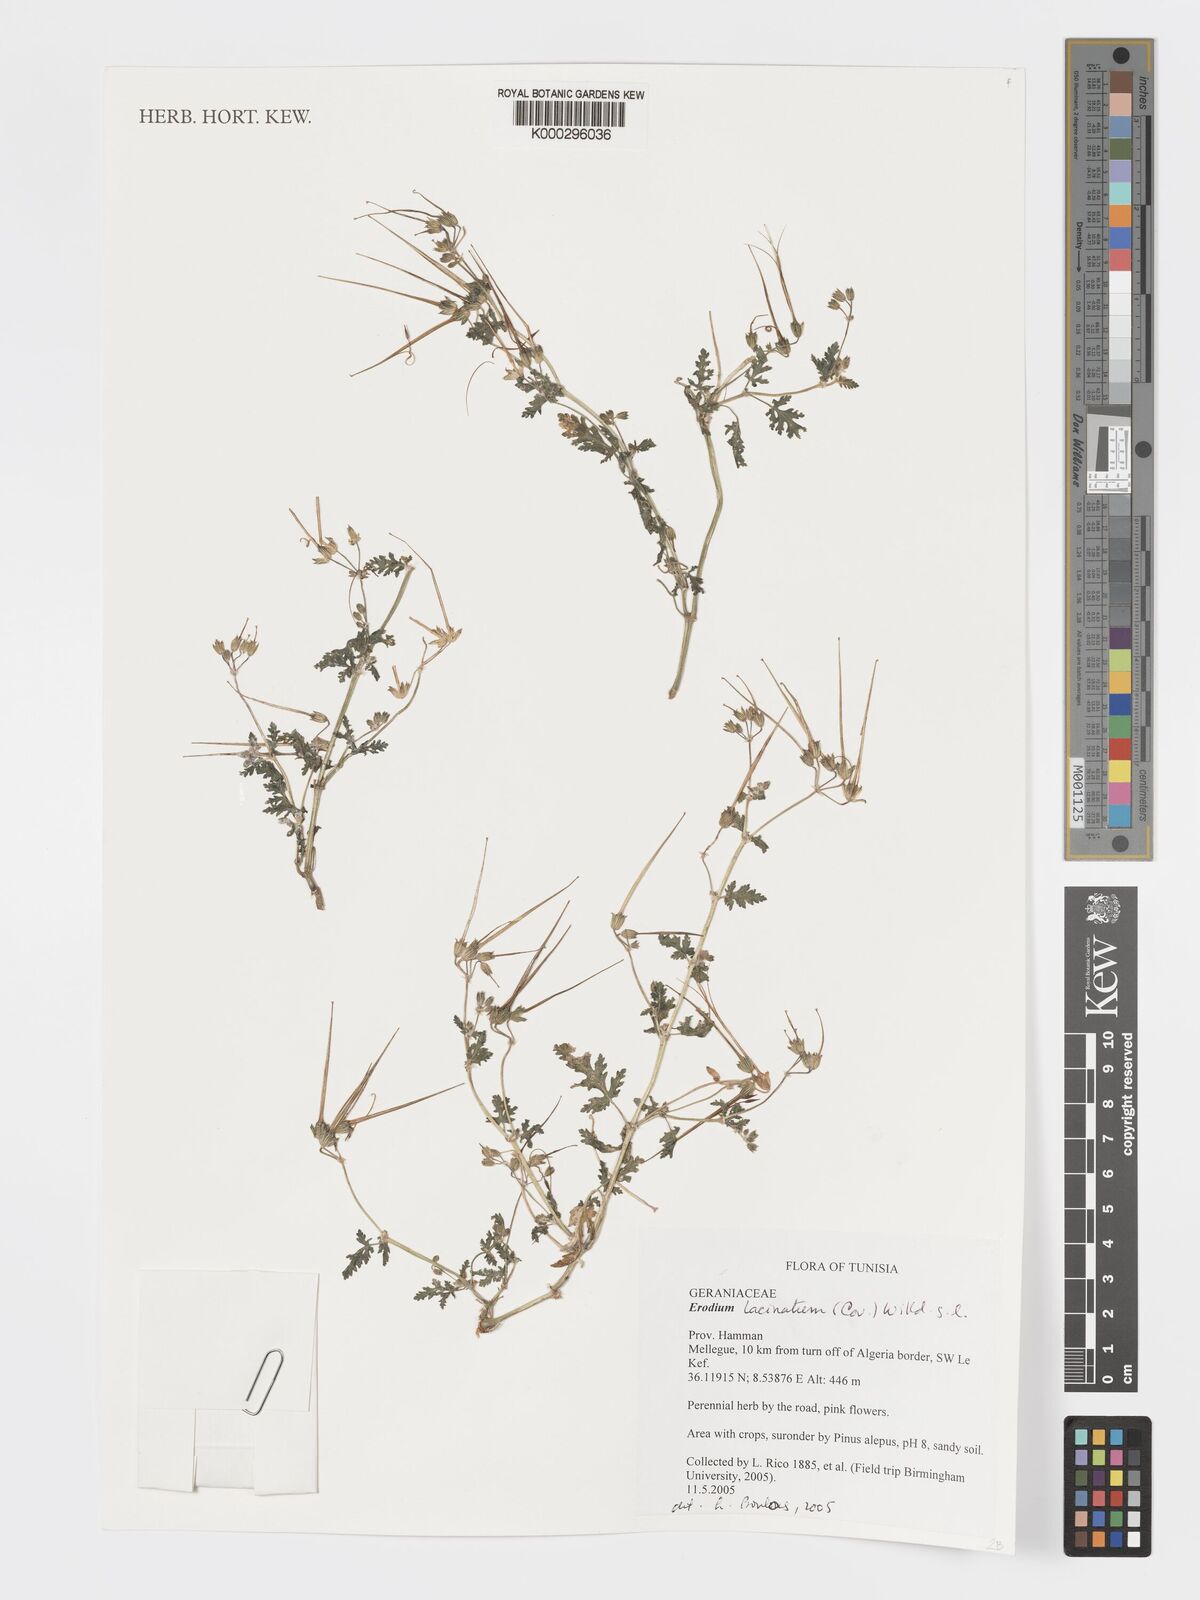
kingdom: Plantae
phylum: Tracheophyta
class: Magnoliopsida
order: Geraniales
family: Geraniaceae
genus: Erodium
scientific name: Erodium cicutarium
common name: Common stork's-bill
